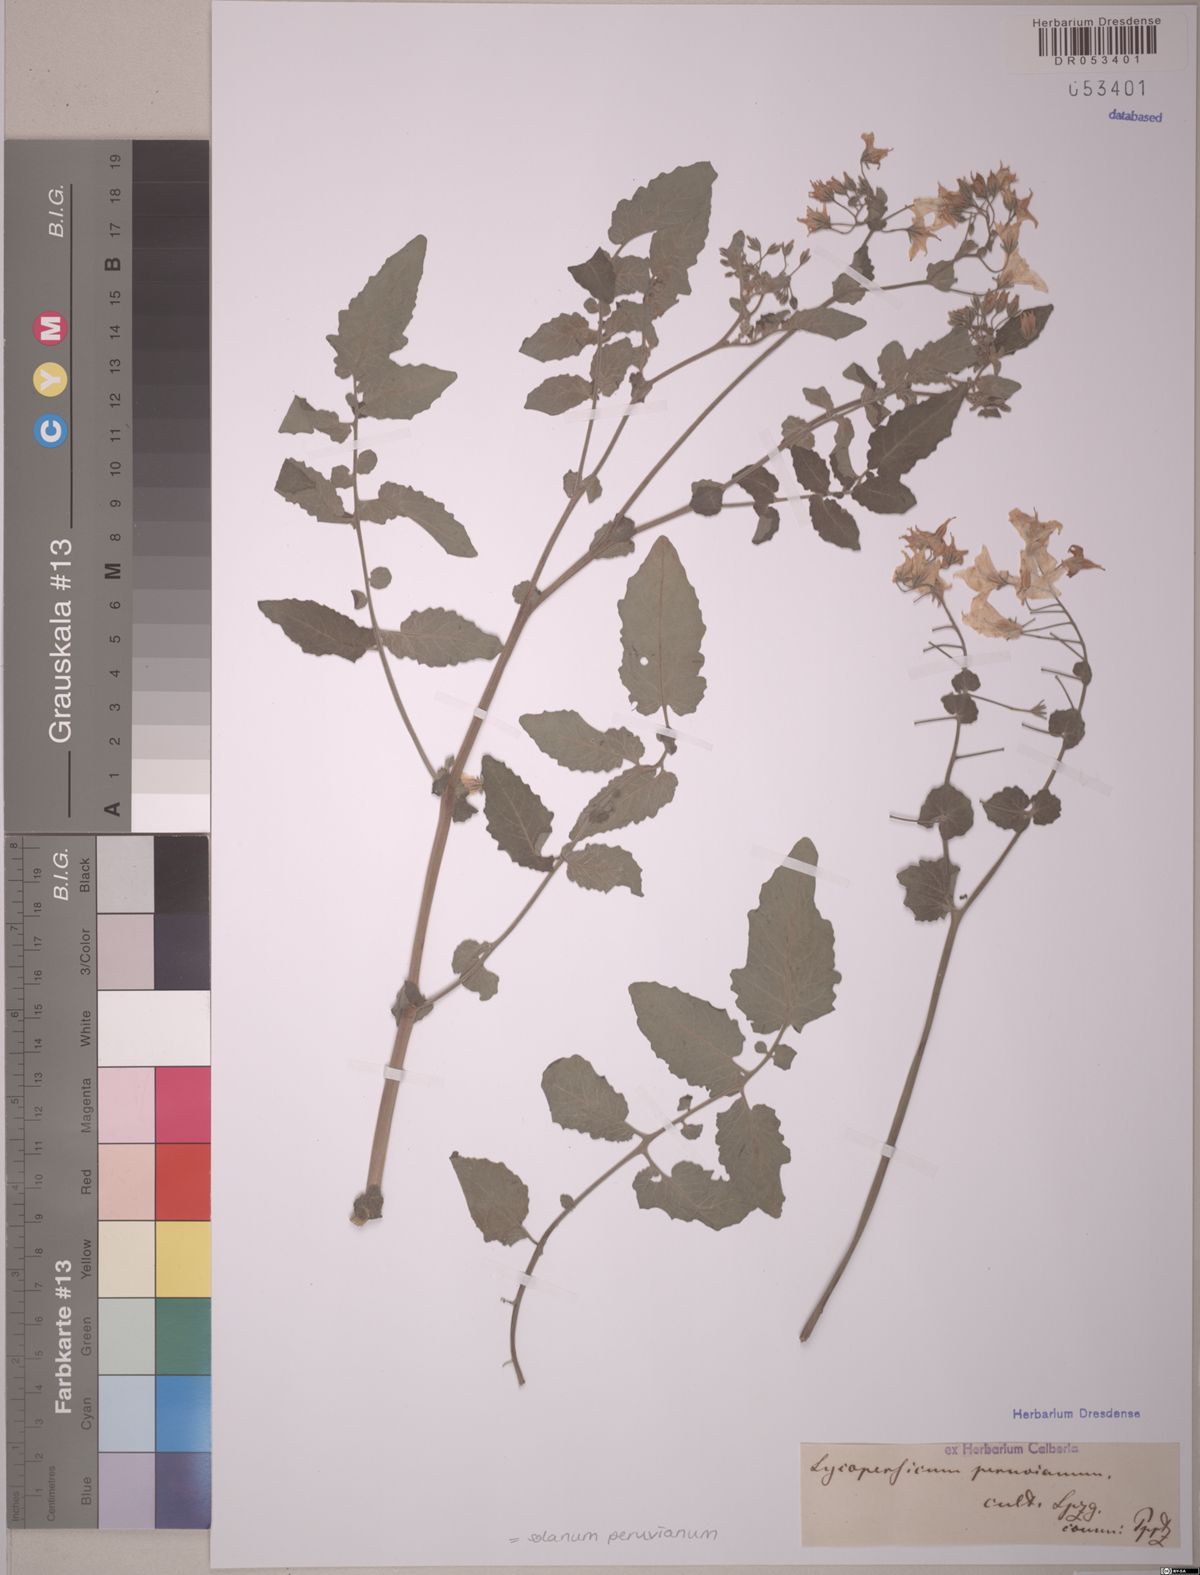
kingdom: Plantae
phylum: Tracheophyta
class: Magnoliopsida
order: Solanales
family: Solanaceae
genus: Solanum
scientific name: Solanum peruvianum
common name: Peruvian nightshade
